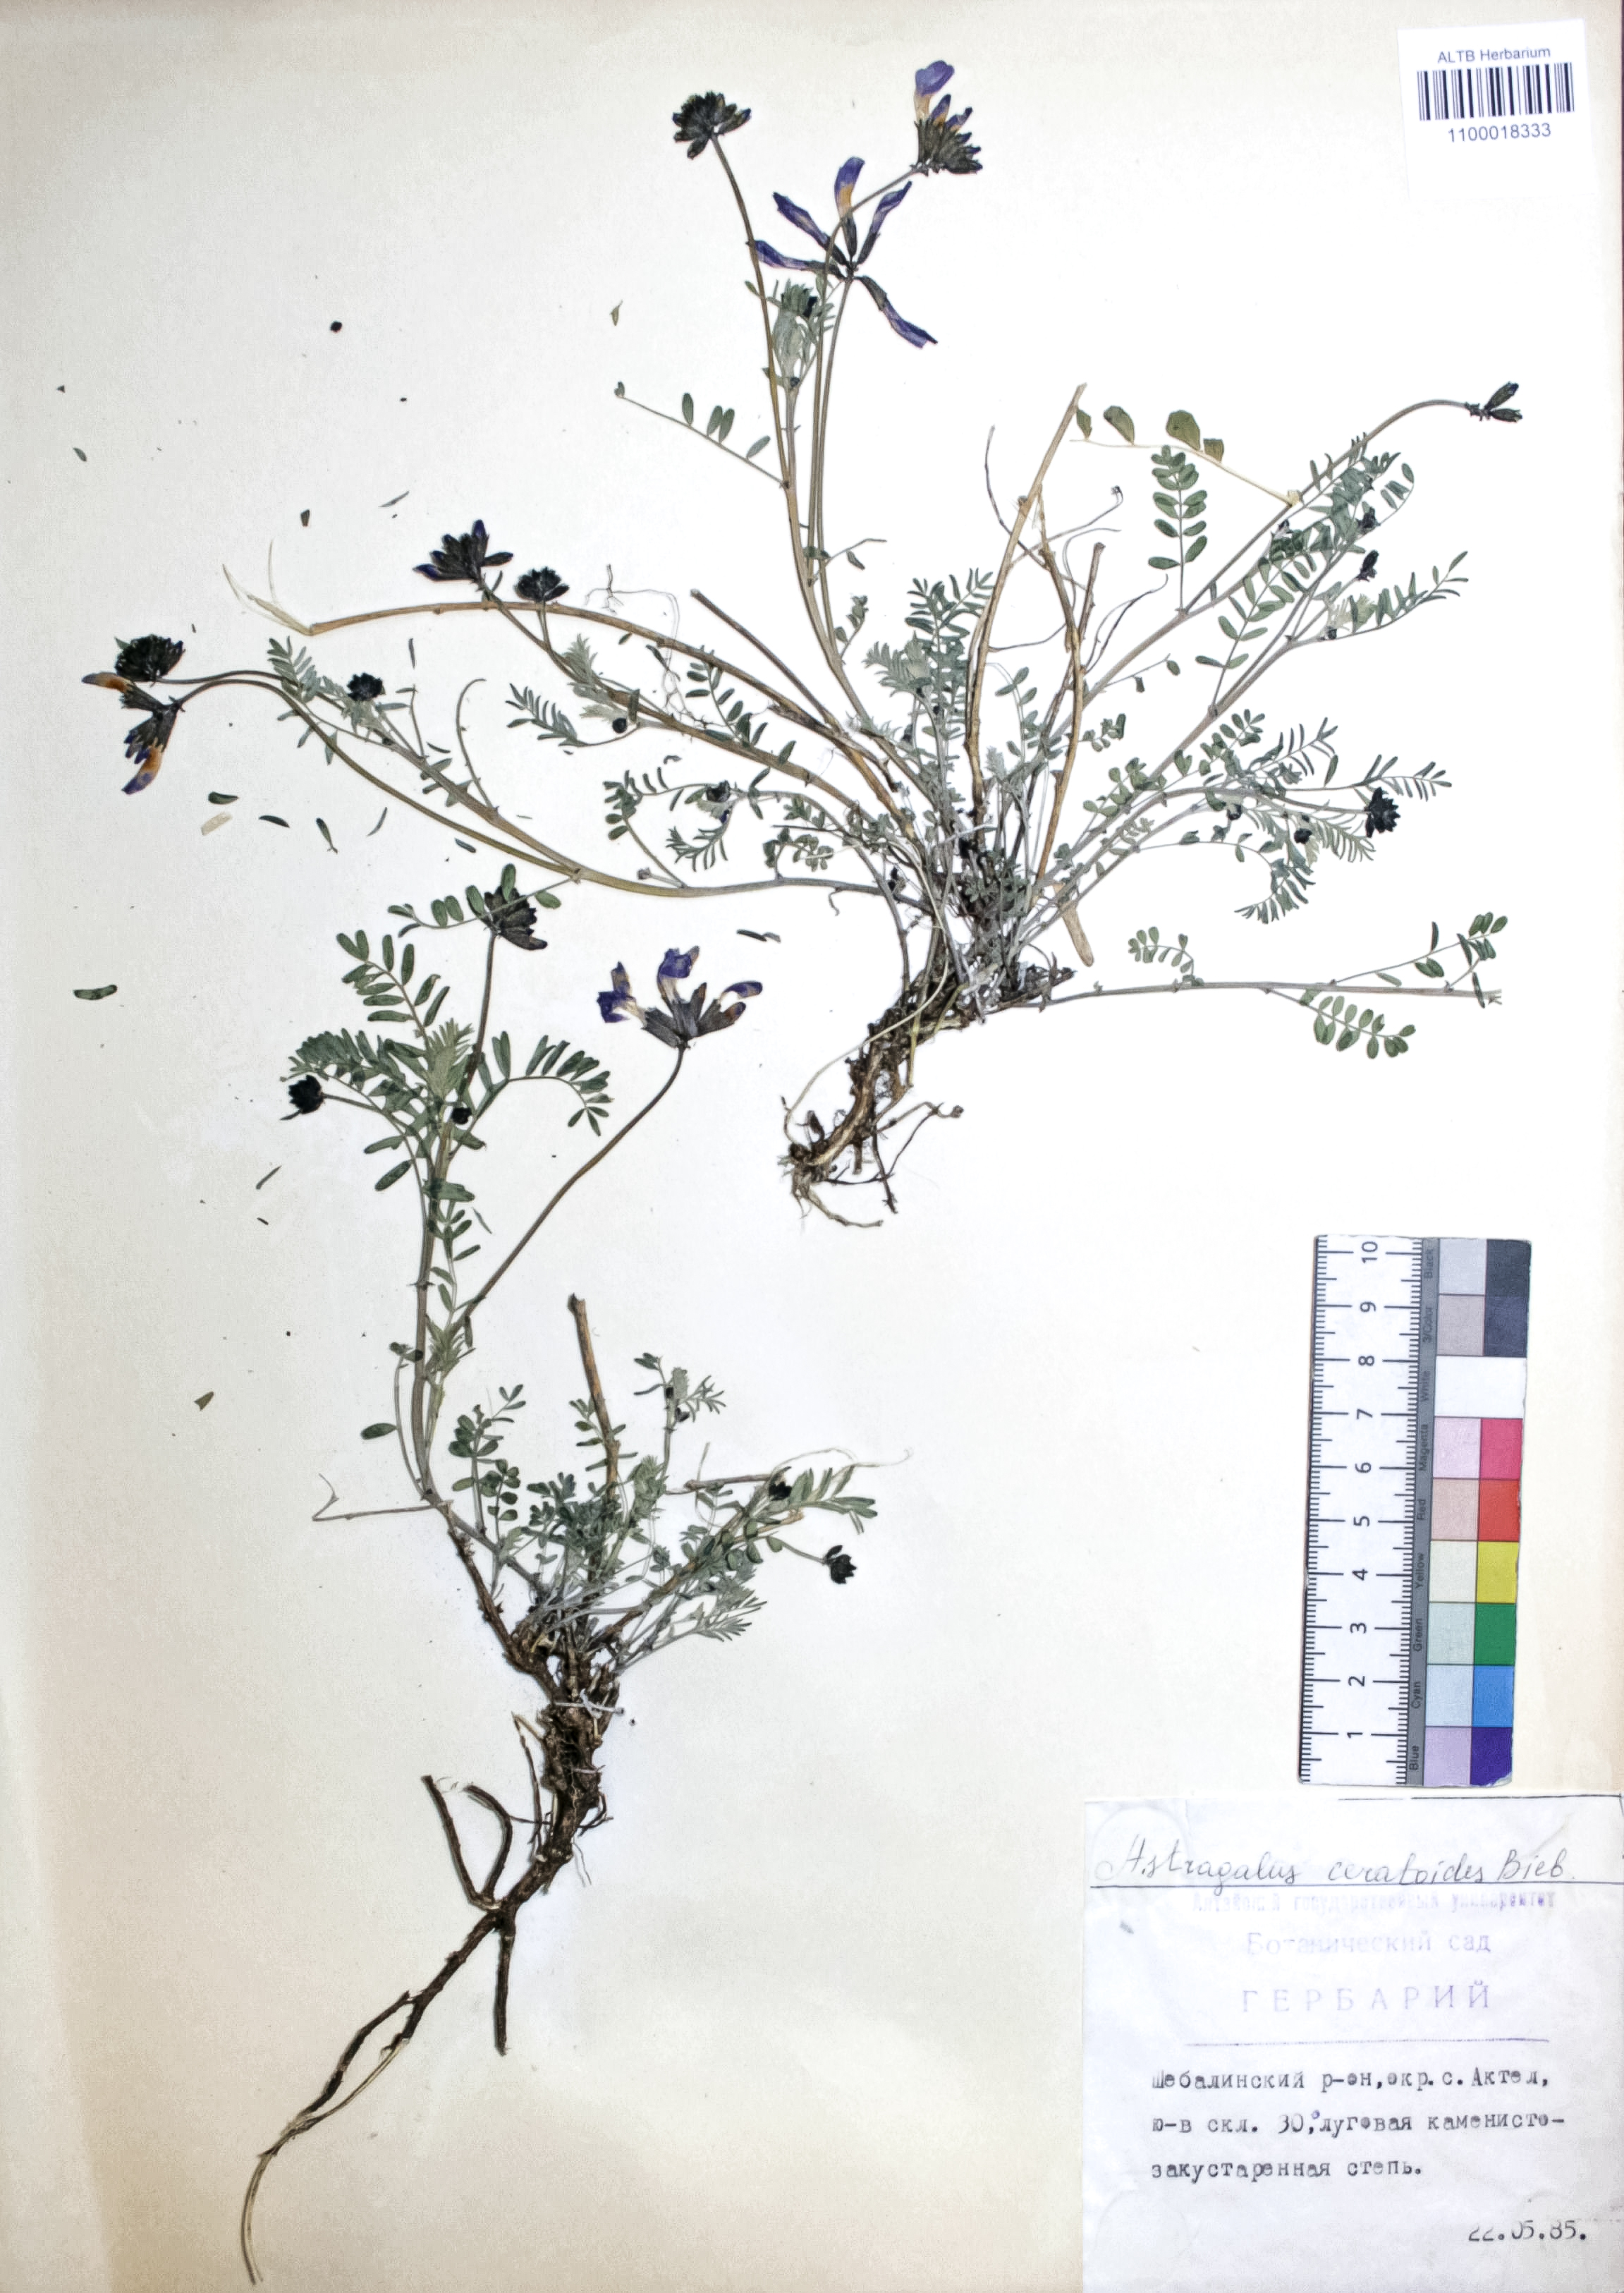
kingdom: Plantae
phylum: Tracheophyta
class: Magnoliopsida
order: Fabales
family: Fabaceae
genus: Astragalus
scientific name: Astragalus ceratoides
